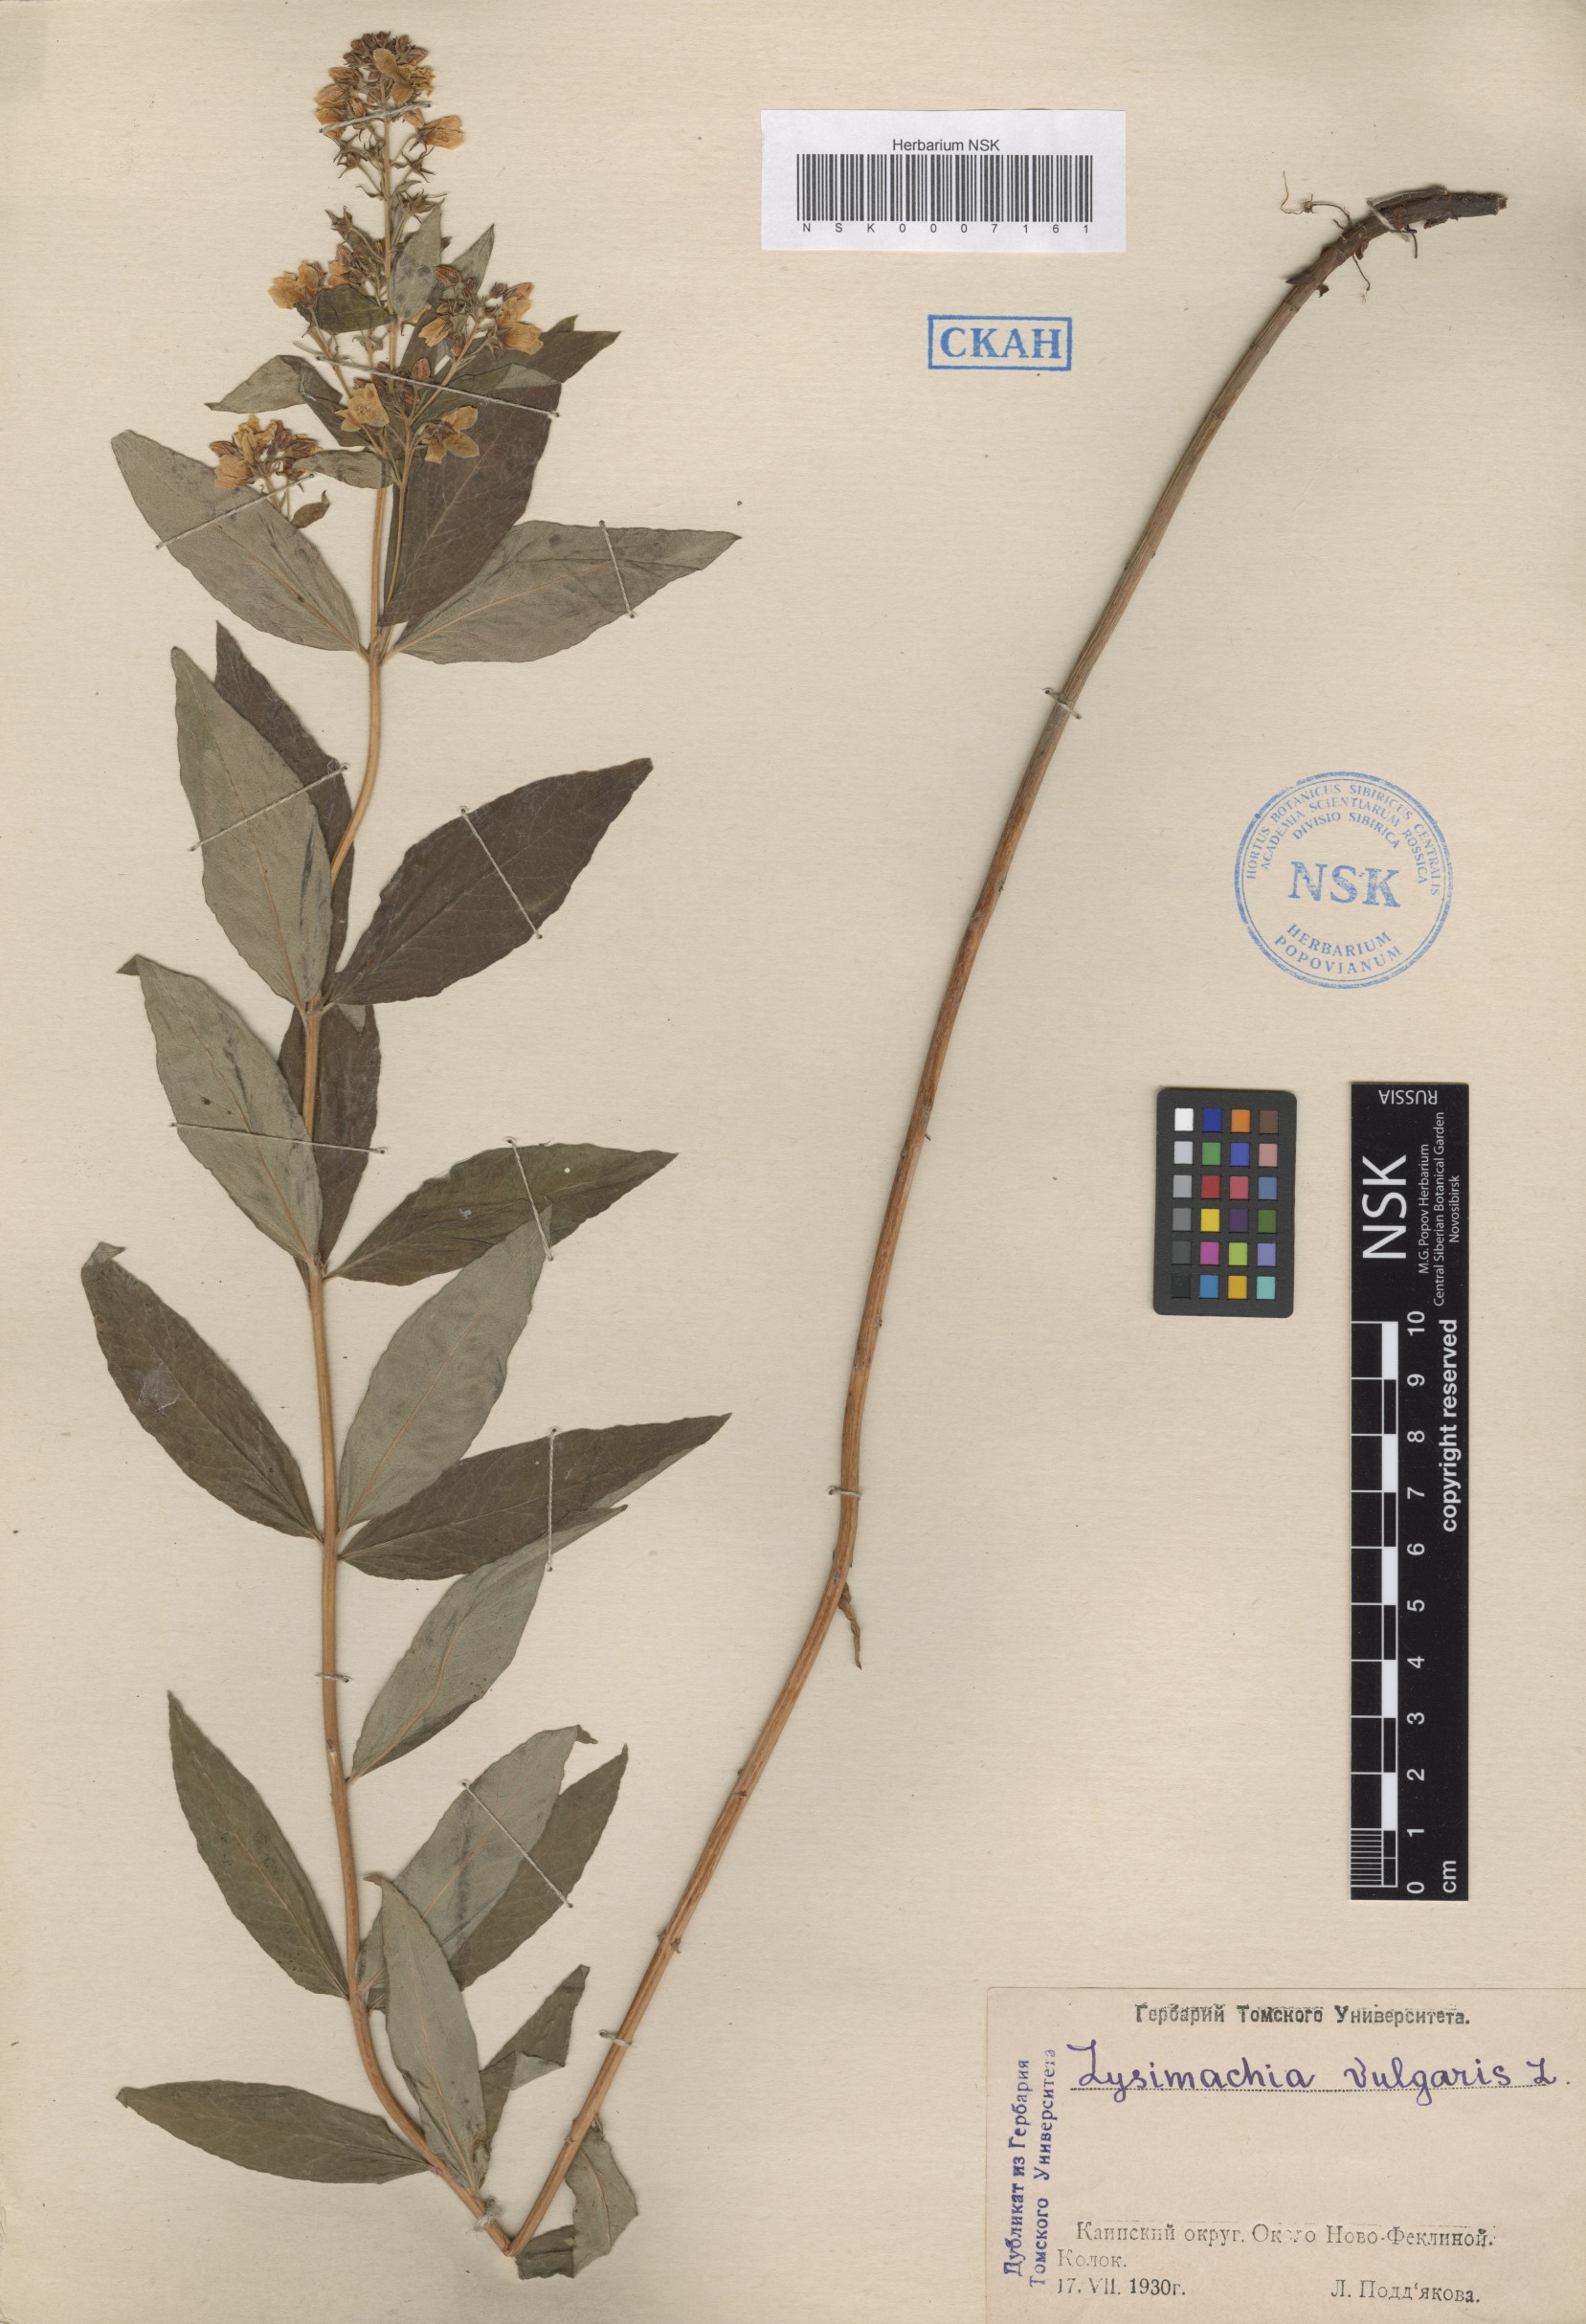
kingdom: Plantae
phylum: Tracheophyta
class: Magnoliopsida
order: Ericales
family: Primulaceae
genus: Lysimachia
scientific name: Lysimachia vulgaris
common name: Yellow loosestrife
